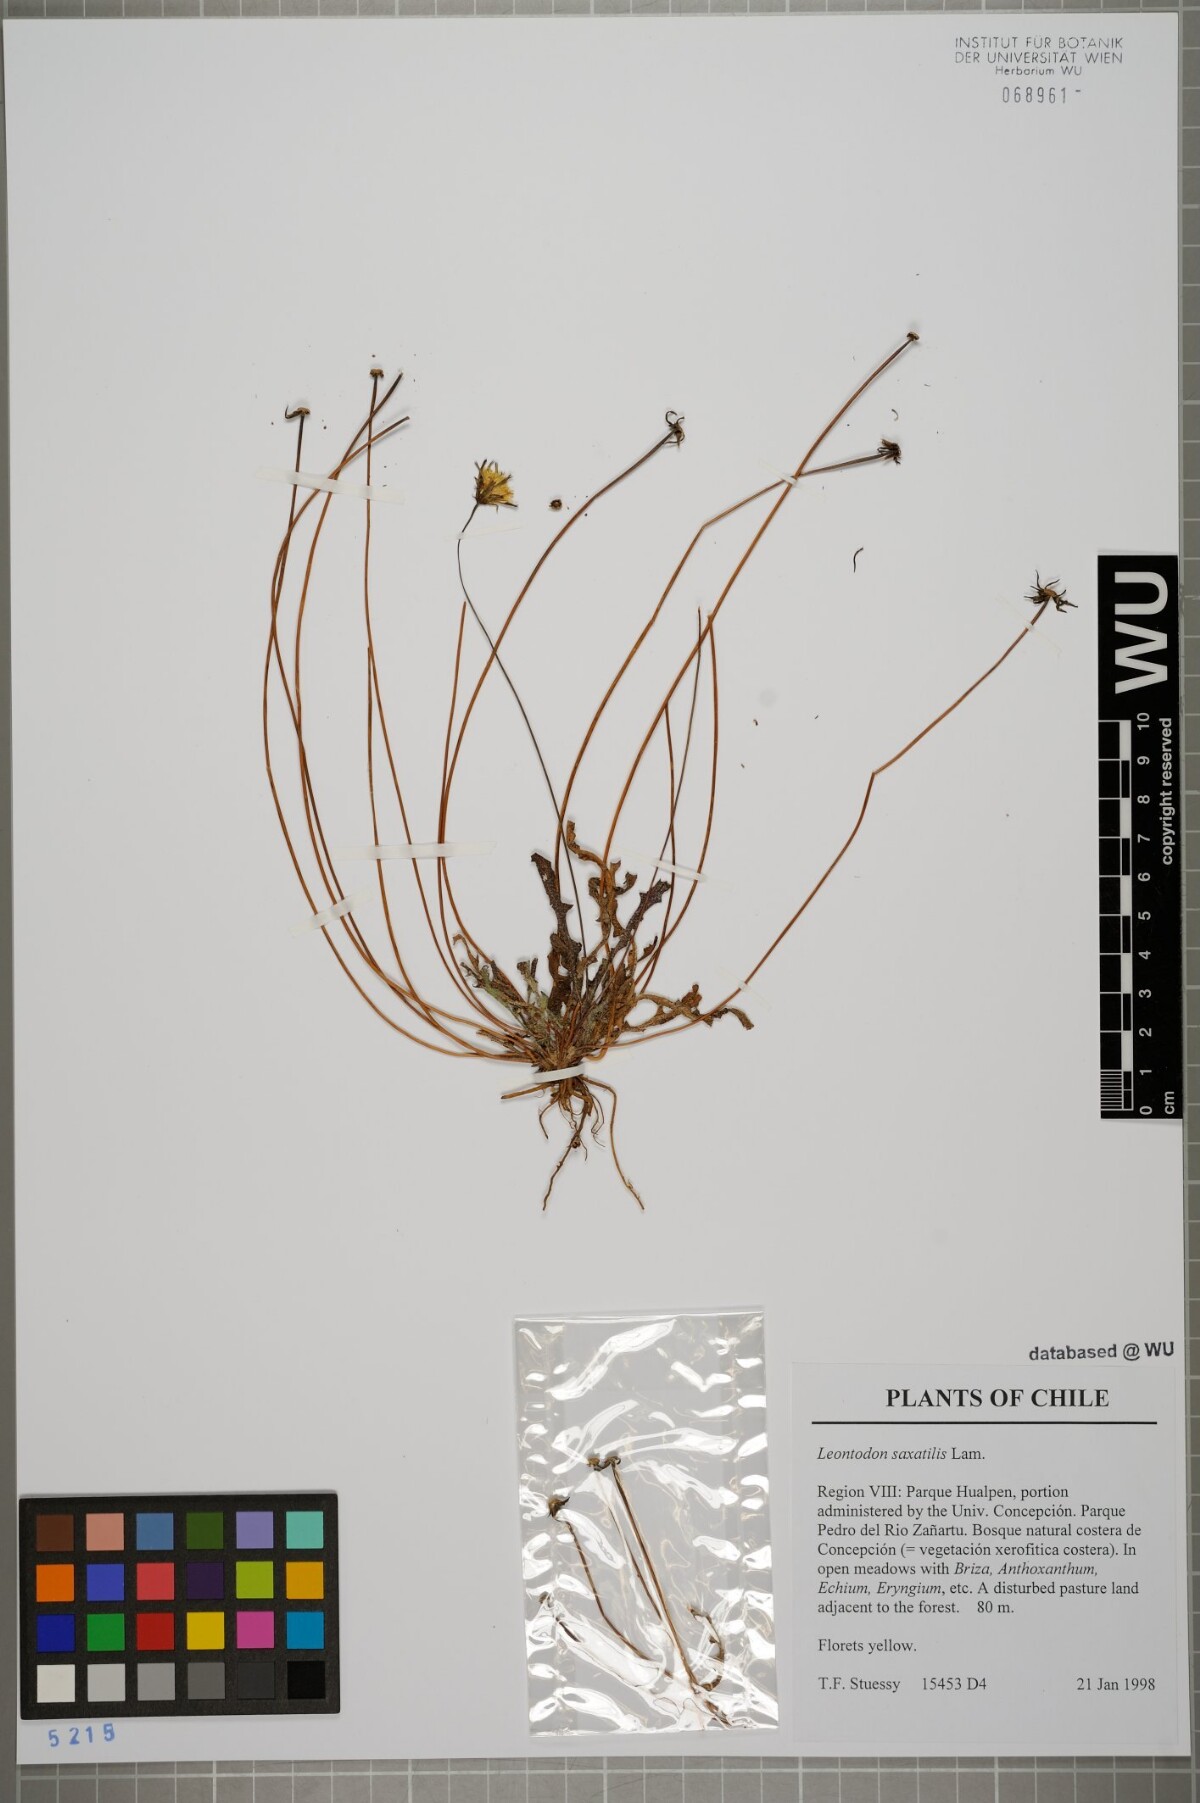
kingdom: Plantae
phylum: Tracheophyta
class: Magnoliopsida
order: Asterales
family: Asteraceae
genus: Thrincia
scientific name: Thrincia saxatilis
